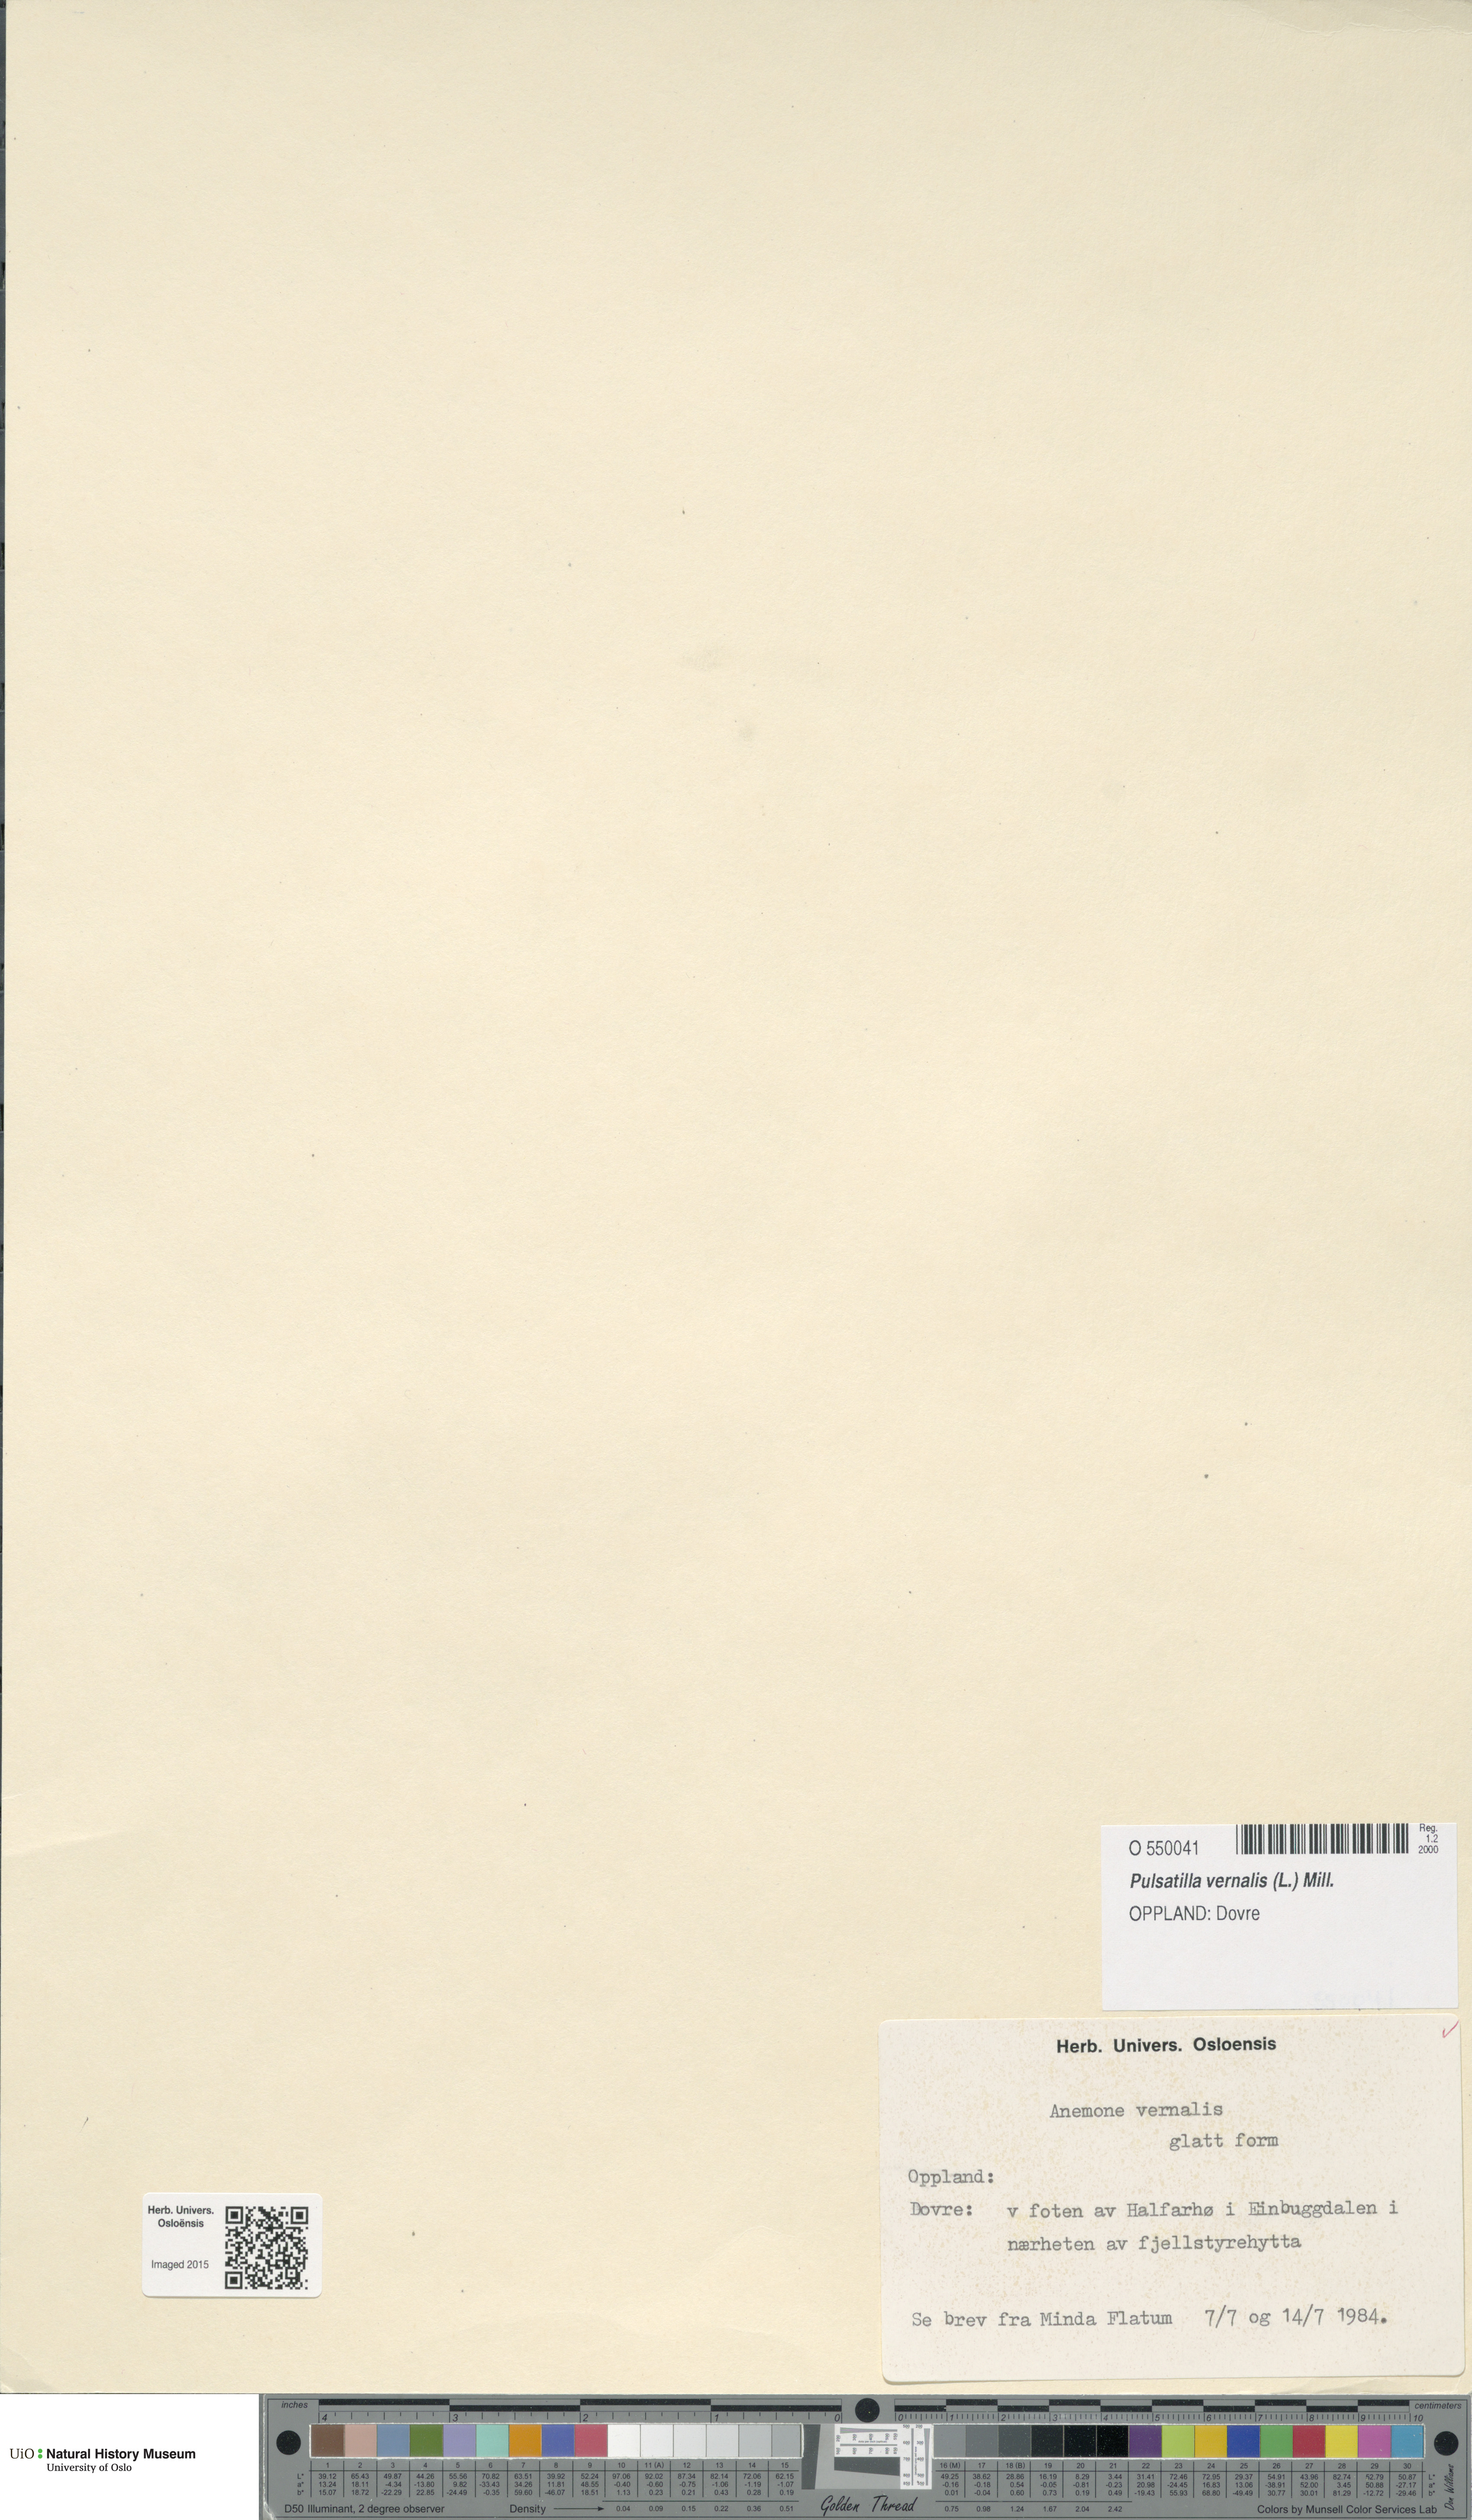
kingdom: Plantae
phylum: Tracheophyta
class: Magnoliopsida
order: Ranunculales
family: Ranunculaceae
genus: Pulsatilla
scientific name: Pulsatilla vernalis
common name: Spring pasque flower
